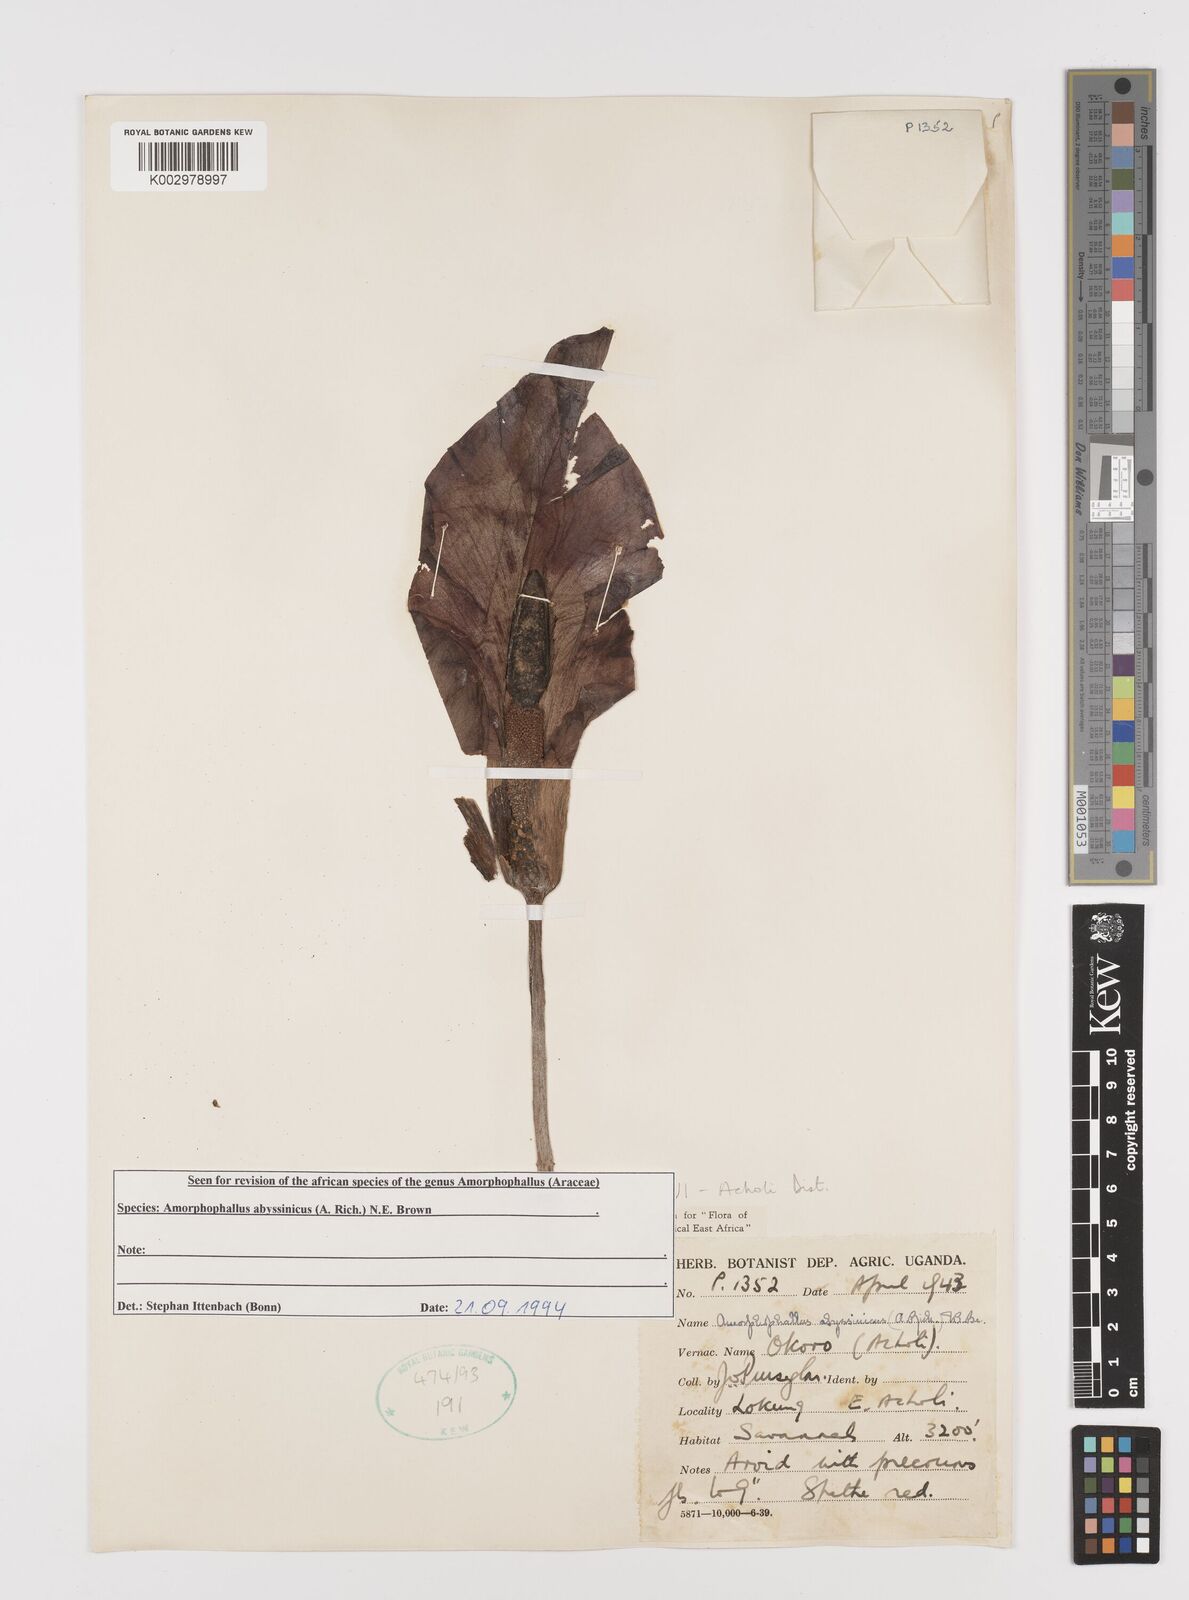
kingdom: Plantae
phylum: Tracheophyta
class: Liliopsida
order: Alismatales
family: Araceae
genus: Amorphophallus
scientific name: Amorphophallus abyssinicus
